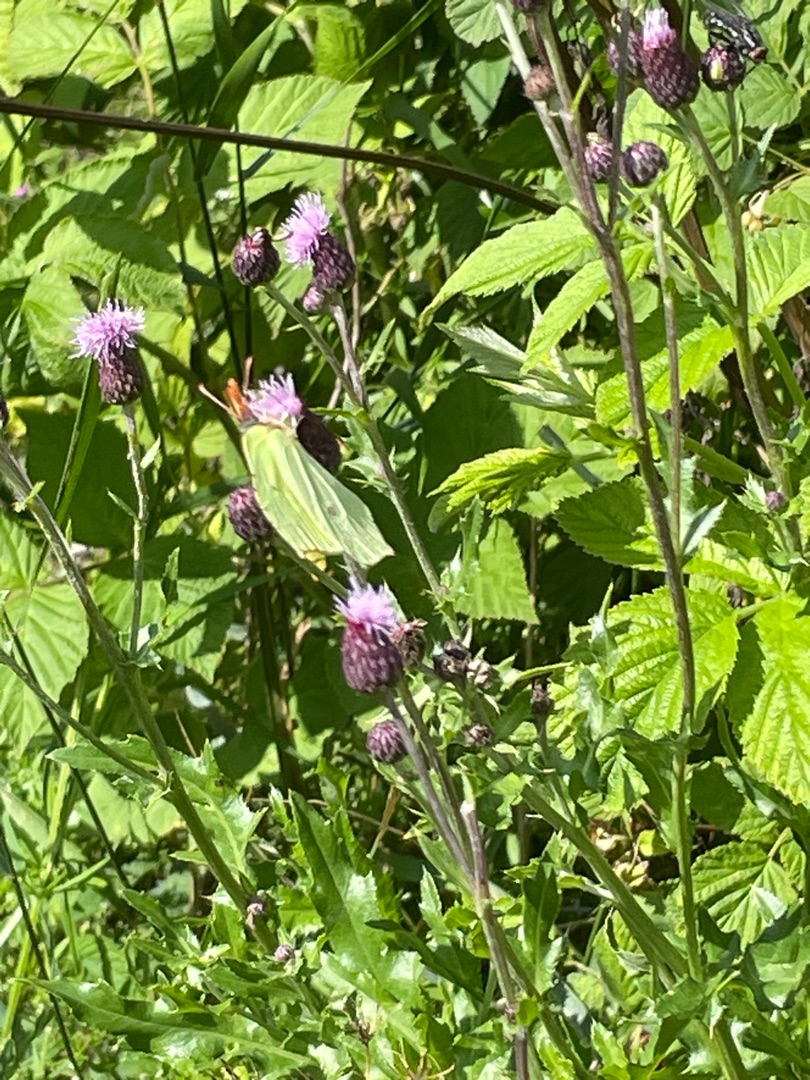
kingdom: Animalia
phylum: Arthropoda
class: Insecta
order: Lepidoptera
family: Pieridae
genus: Gonepteryx
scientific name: Gonepteryx rhamni
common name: Citronsommerfugl
